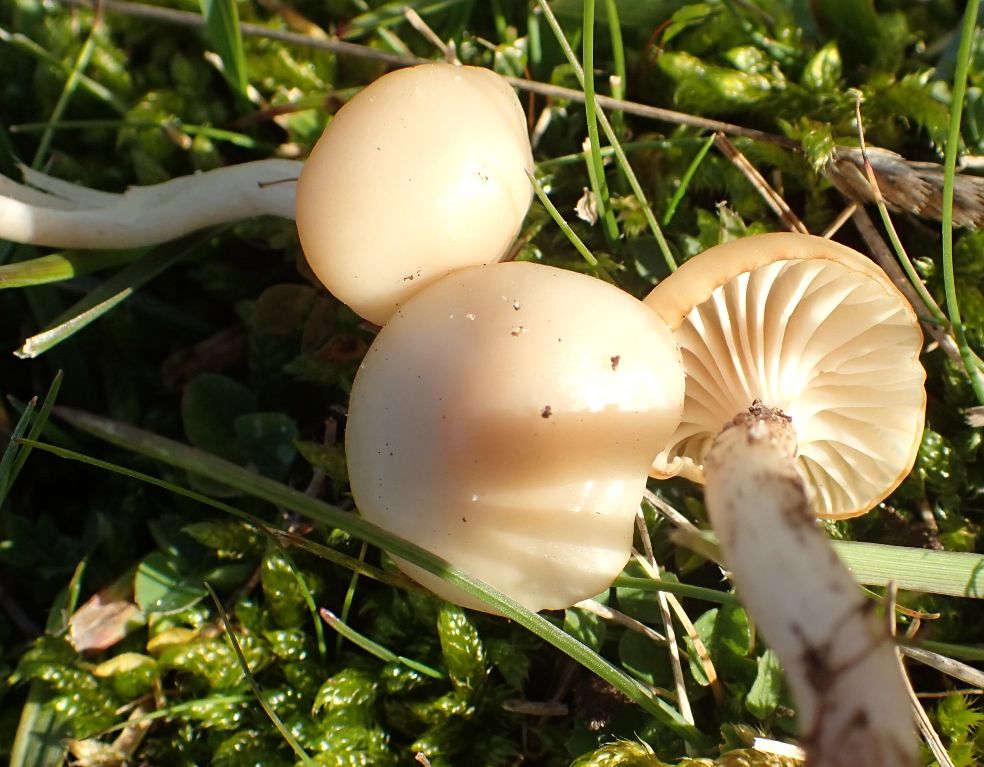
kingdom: Fungi
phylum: Basidiomycota
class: Agaricomycetes
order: Agaricales
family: Hygrophoraceae
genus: Cuphophyllus
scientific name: Cuphophyllus virgineus
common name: snehvid vokshat
